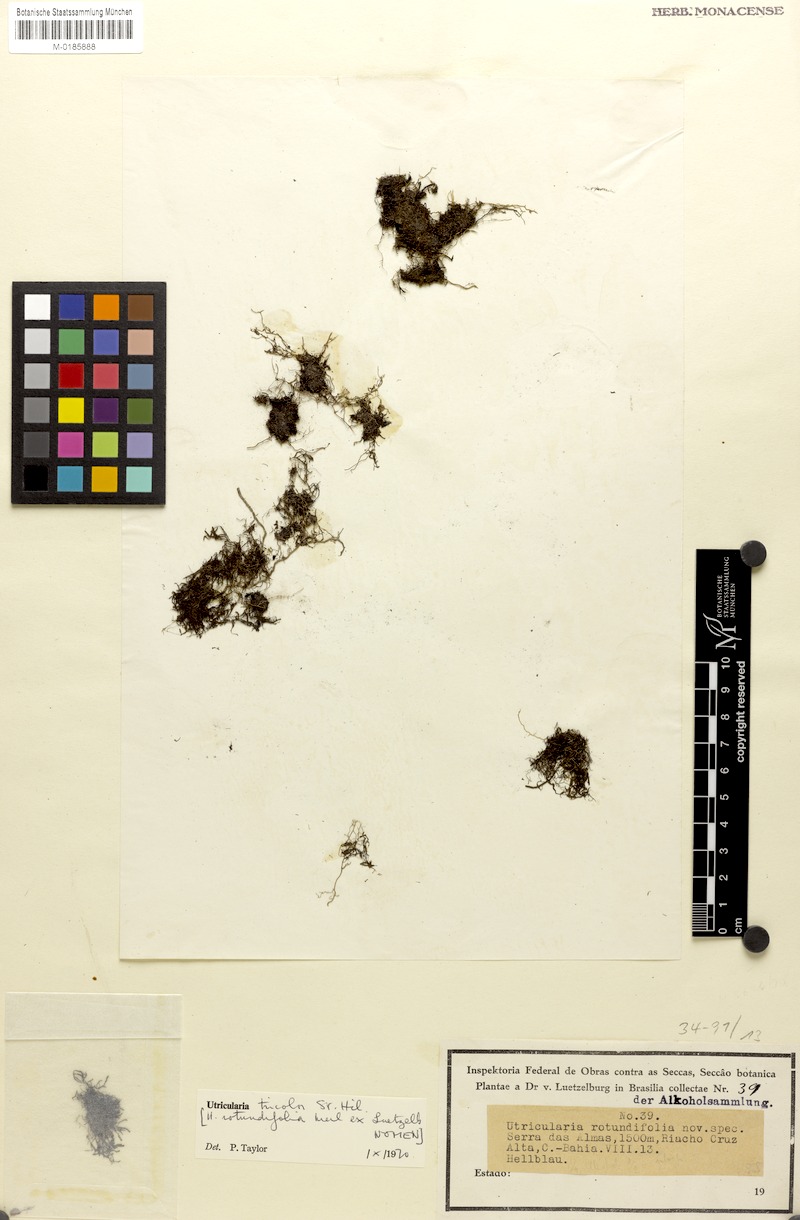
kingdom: Plantae
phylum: Tracheophyta
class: Magnoliopsida
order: Lamiales
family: Lentibulariaceae
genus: Utricularia
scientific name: Utricularia tricolor
